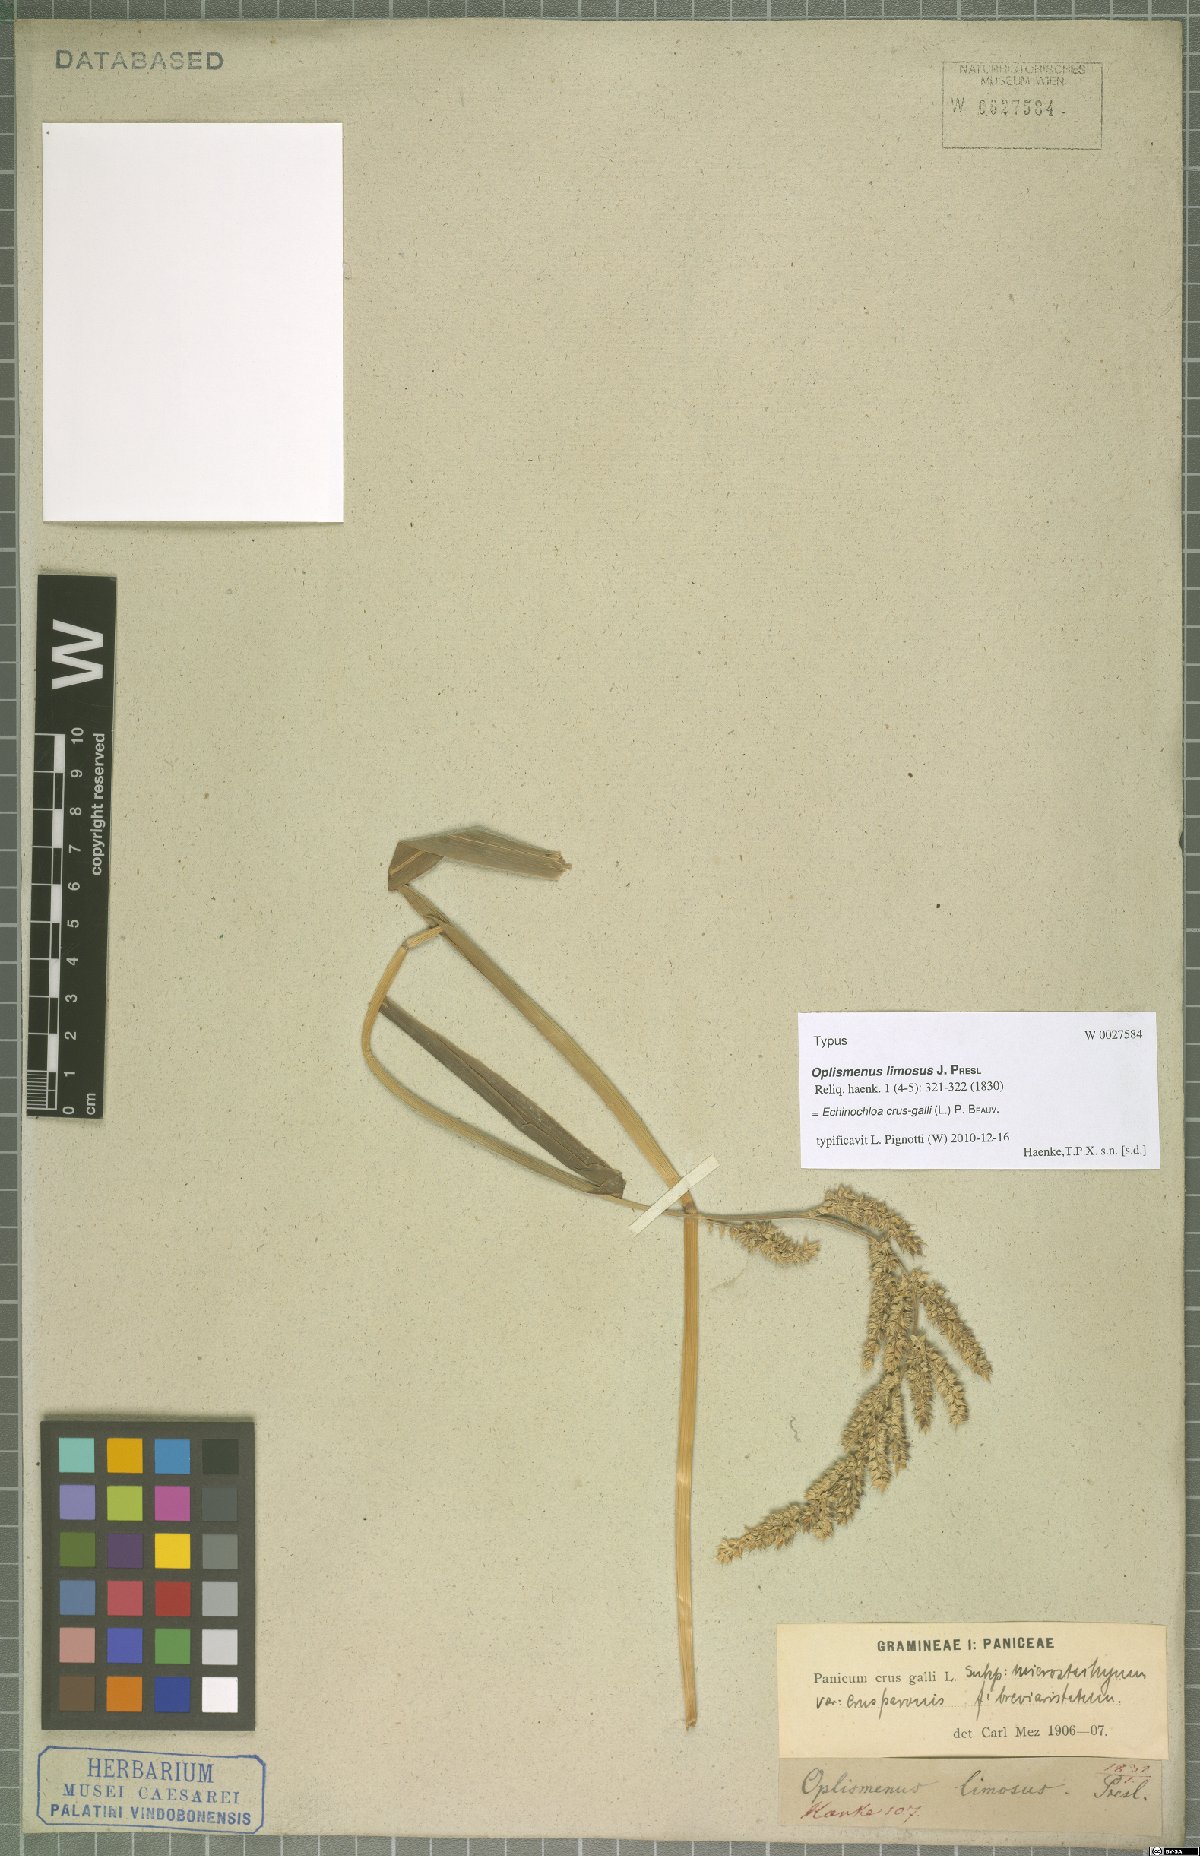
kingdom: Plantae
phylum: Tracheophyta
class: Liliopsida
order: Poales
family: Poaceae
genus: Echinochloa
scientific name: Echinochloa crus-galli
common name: Cockspur
